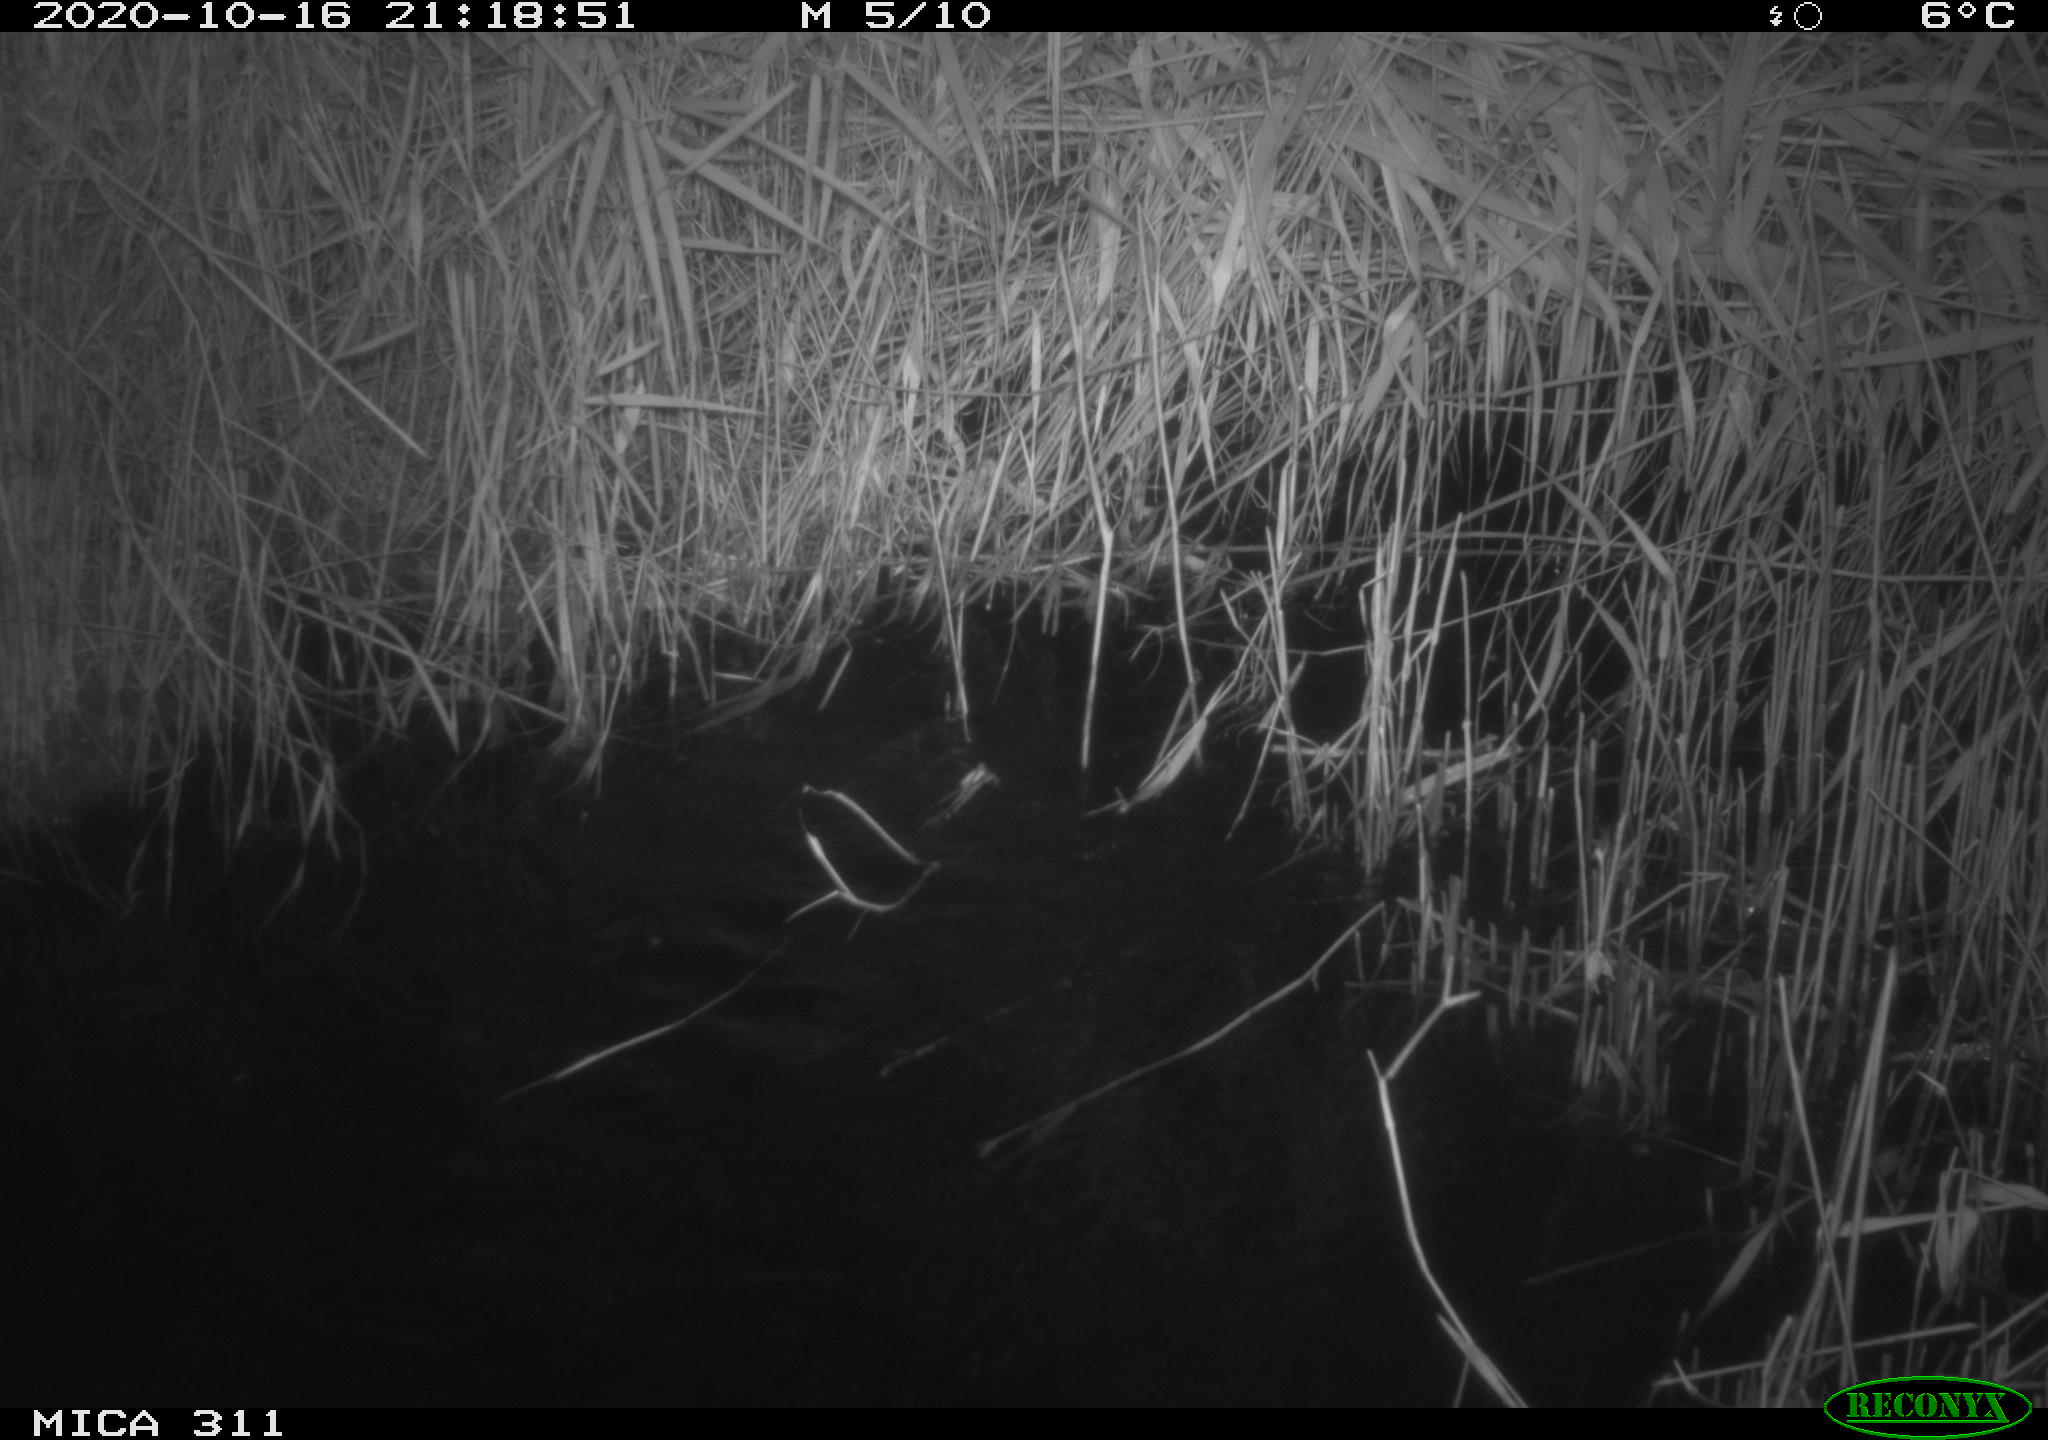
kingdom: Animalia
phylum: Chordata
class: Mammalia
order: Rodentia
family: Muridae
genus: Rattus
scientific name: Rattus norvegicus
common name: Brown rat
